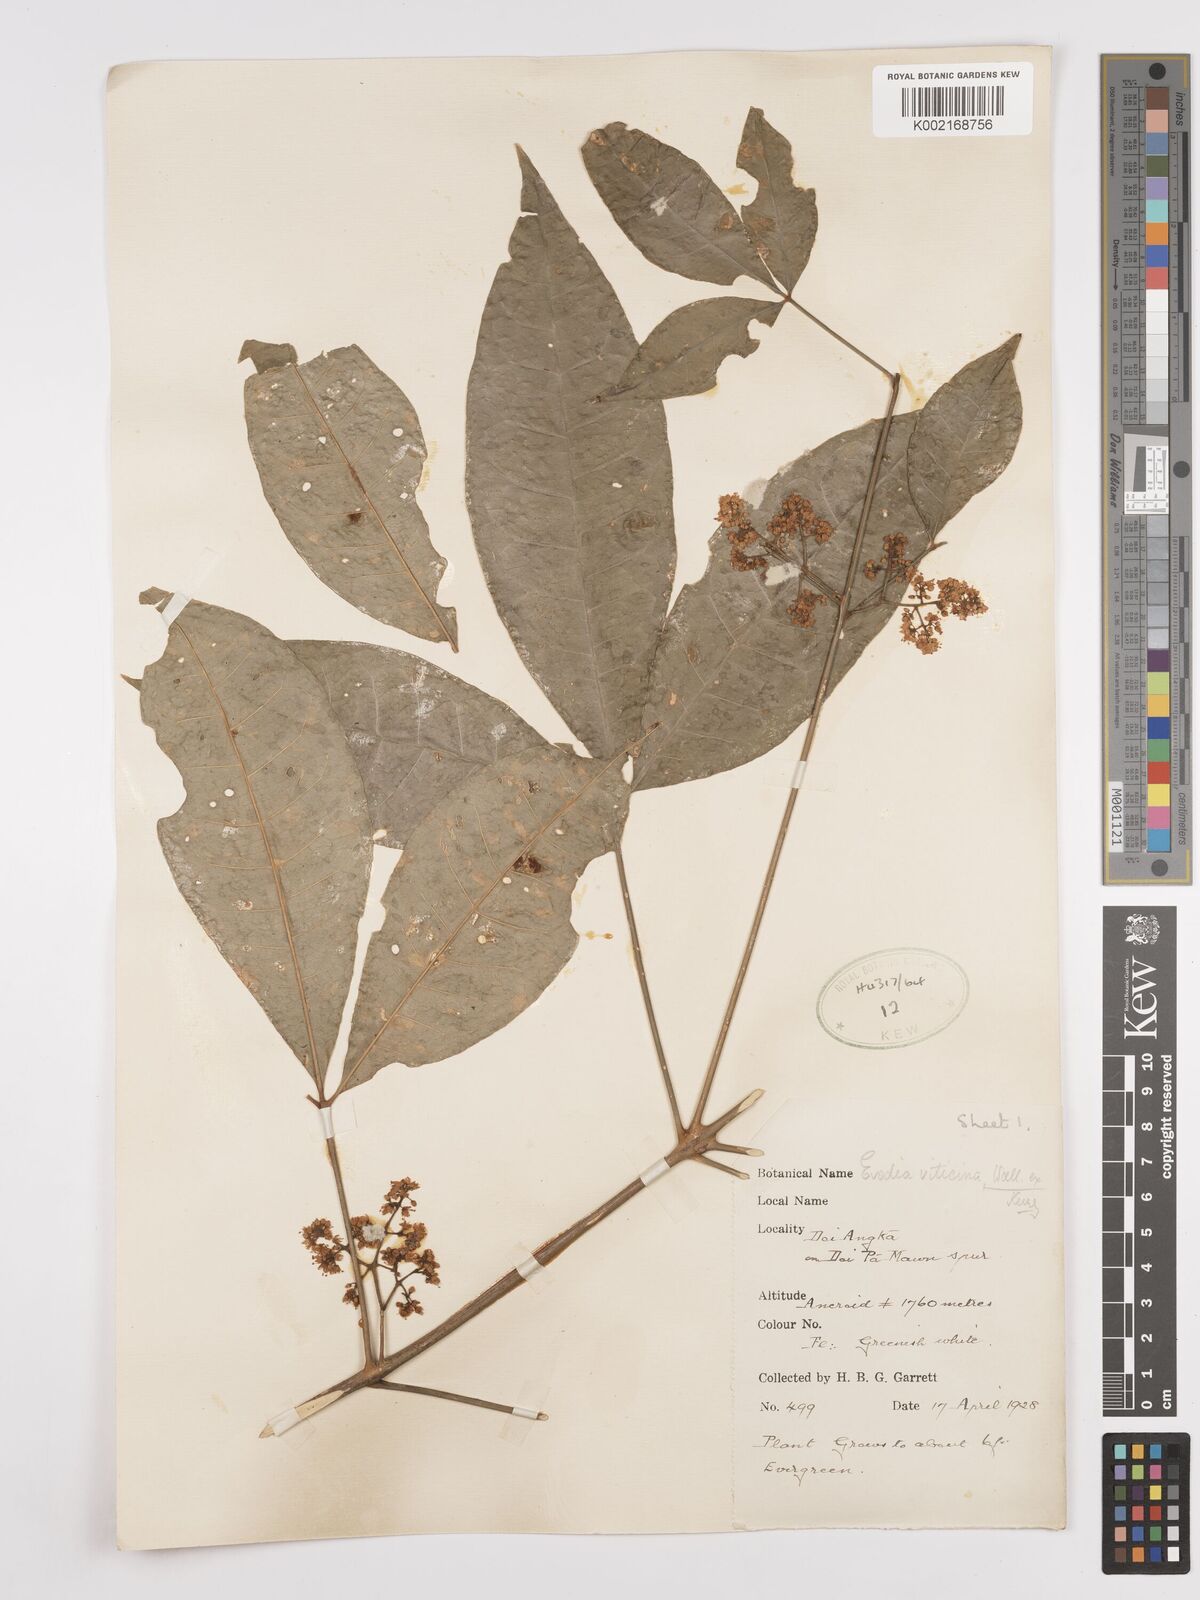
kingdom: Plantae
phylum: Tracheophyta
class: Magnoliopsida
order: Sapindales
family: Rutaceae
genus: Euodia
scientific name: Euodia
